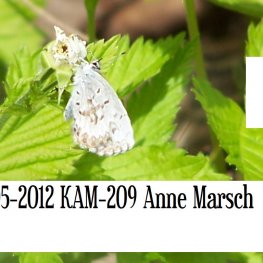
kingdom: Animalia
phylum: Arthropoda
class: Insecta
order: Lepidoptera
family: Lycaenidae
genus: Celastrina
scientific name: Celastrina lucia
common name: Northern Spring Azure
